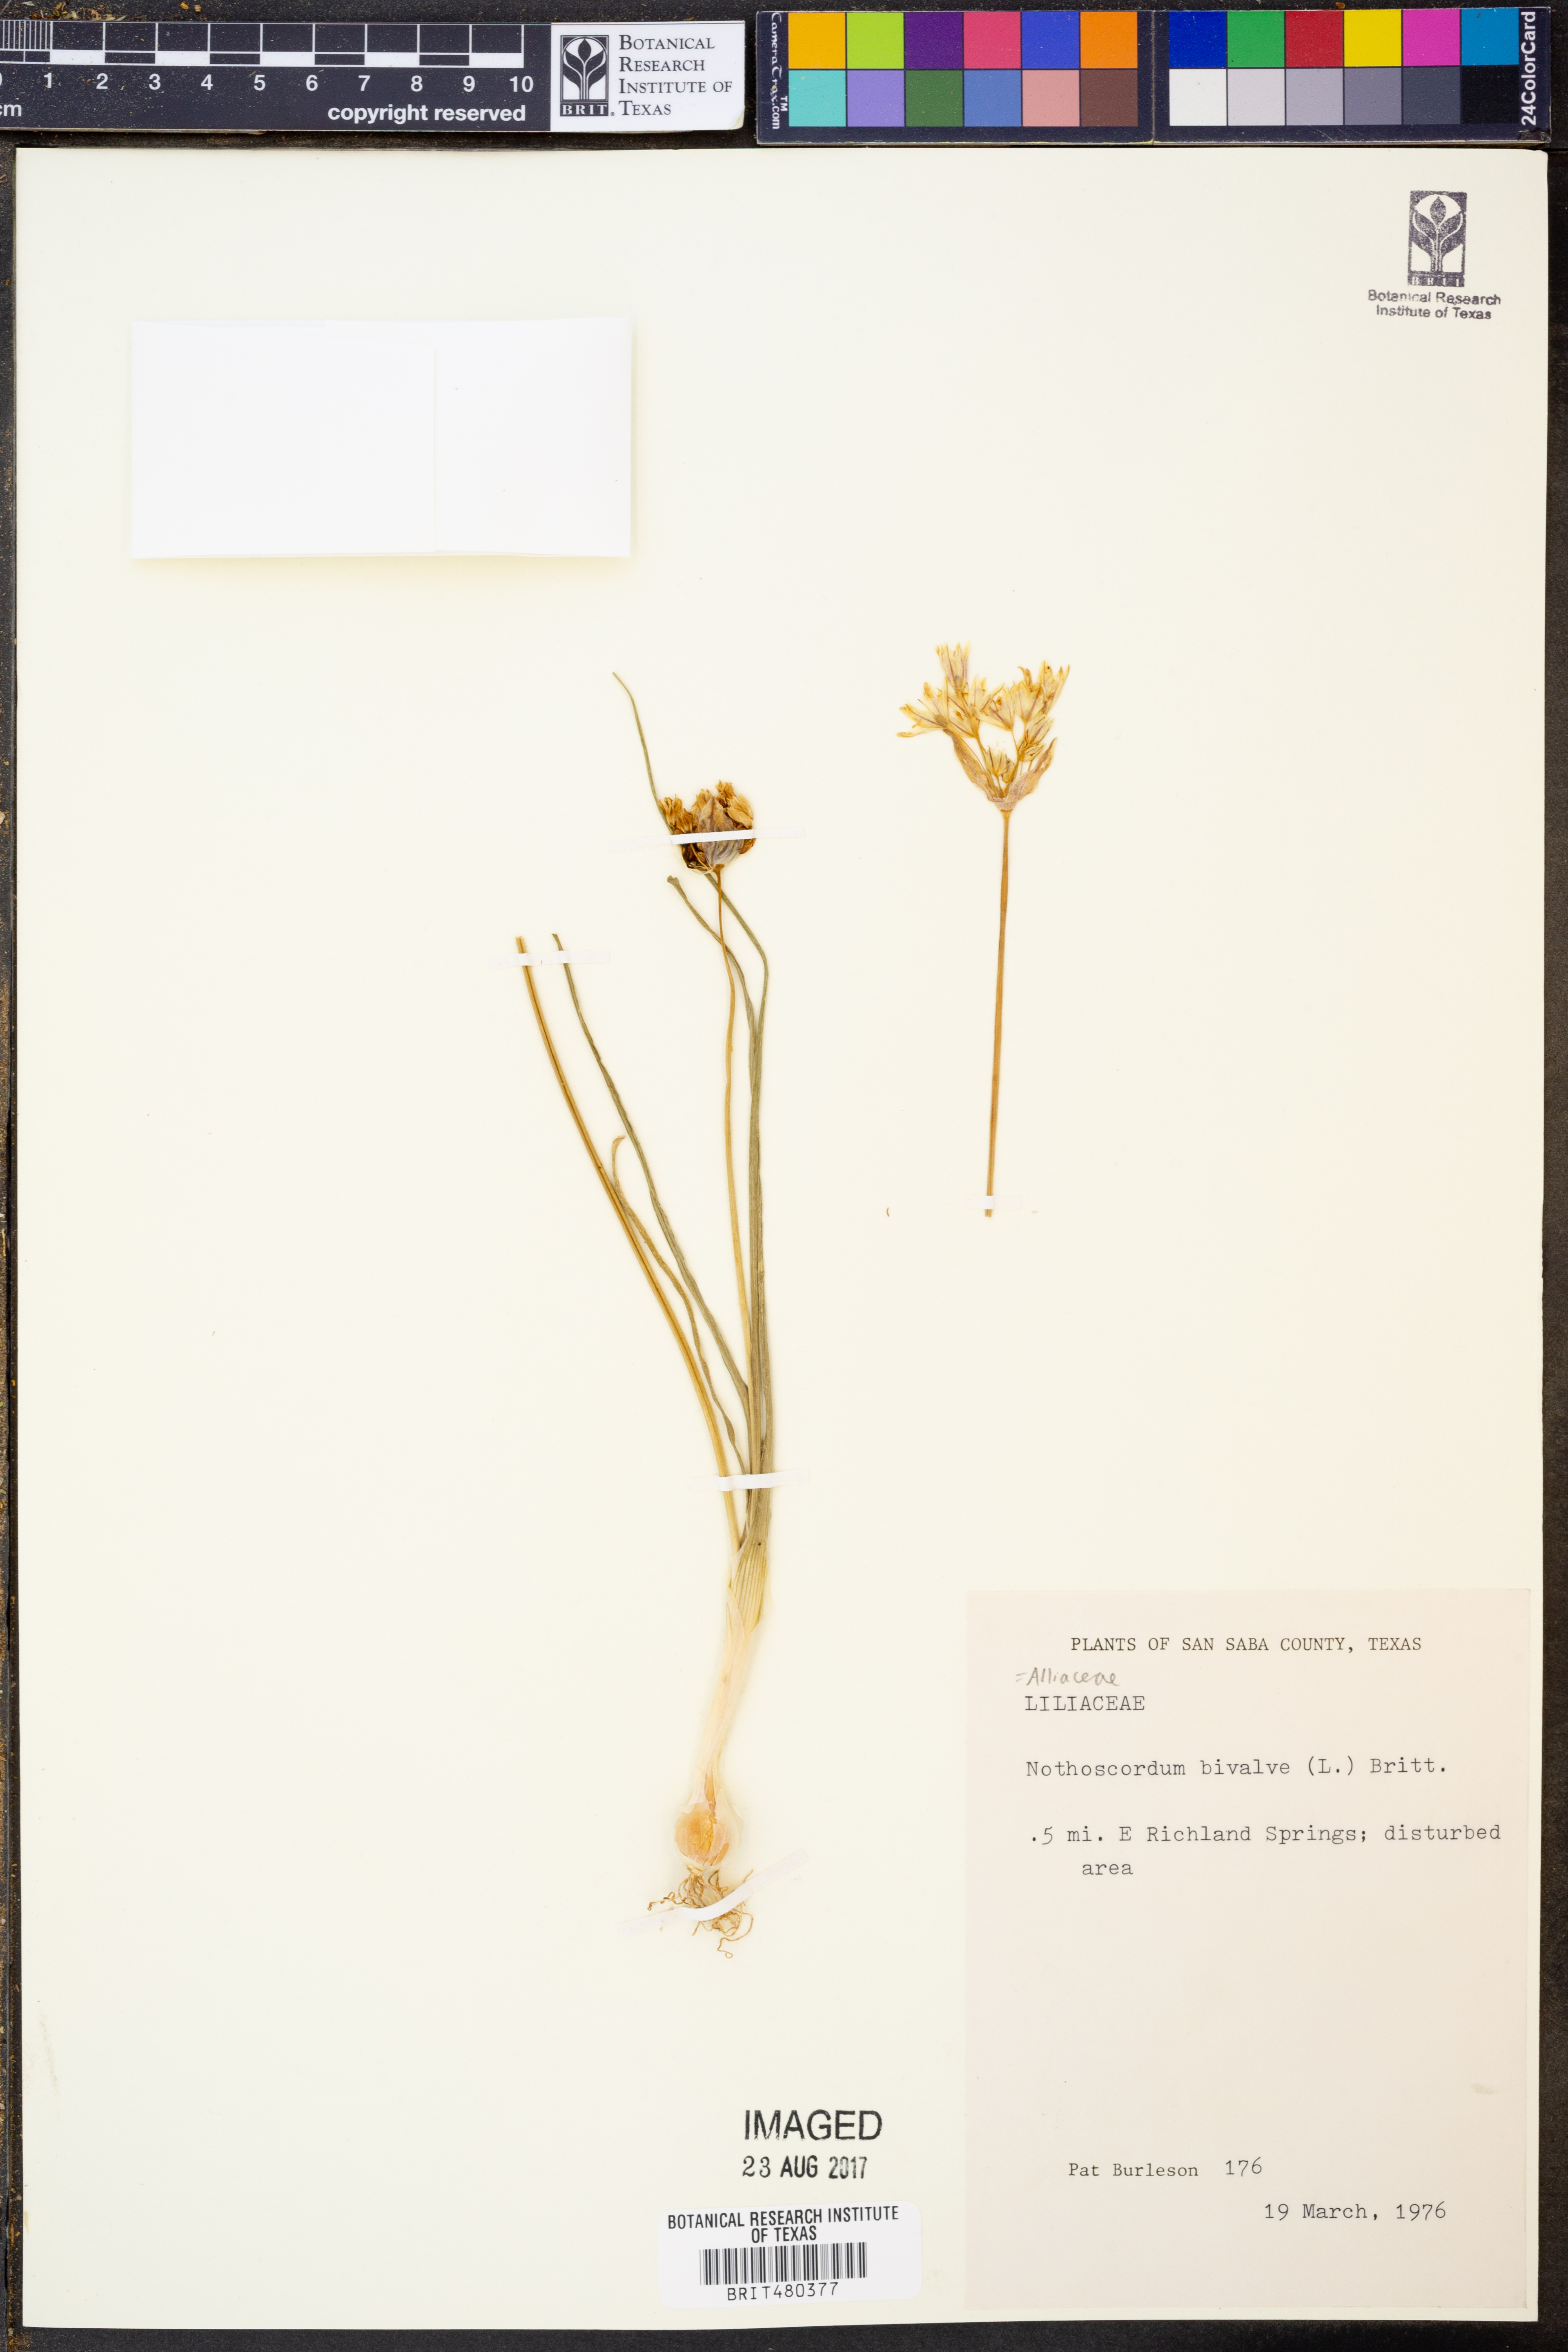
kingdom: Plantae
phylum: Tracheophyta
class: Liliopsida
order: Asparagales
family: Amaryllidaceae
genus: Nothoscordum
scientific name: Nothoscordum bivalve
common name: Crow-poison
